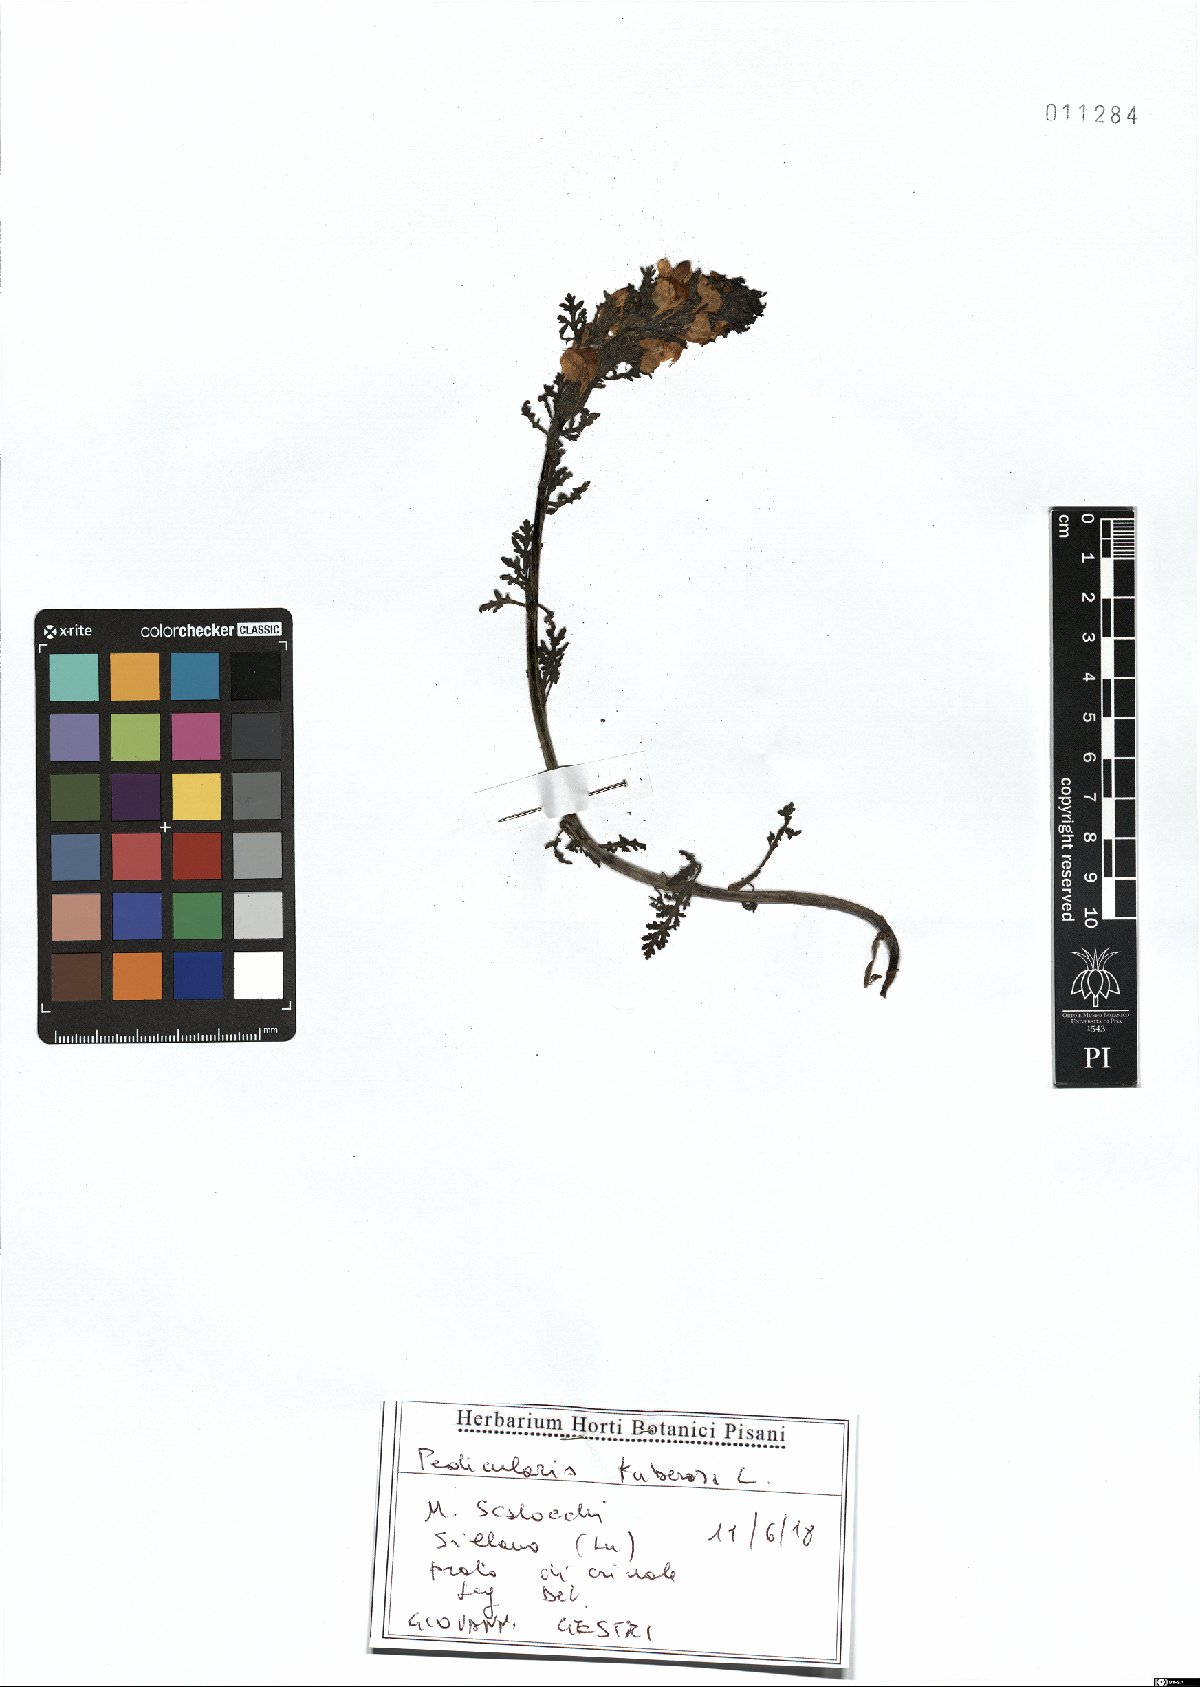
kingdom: Plantae
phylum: Tracheophyta
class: Magnoliopsida
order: Lamiales
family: Orobanchaceae
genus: Pedicularis
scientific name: Pedicularis tuberosa
